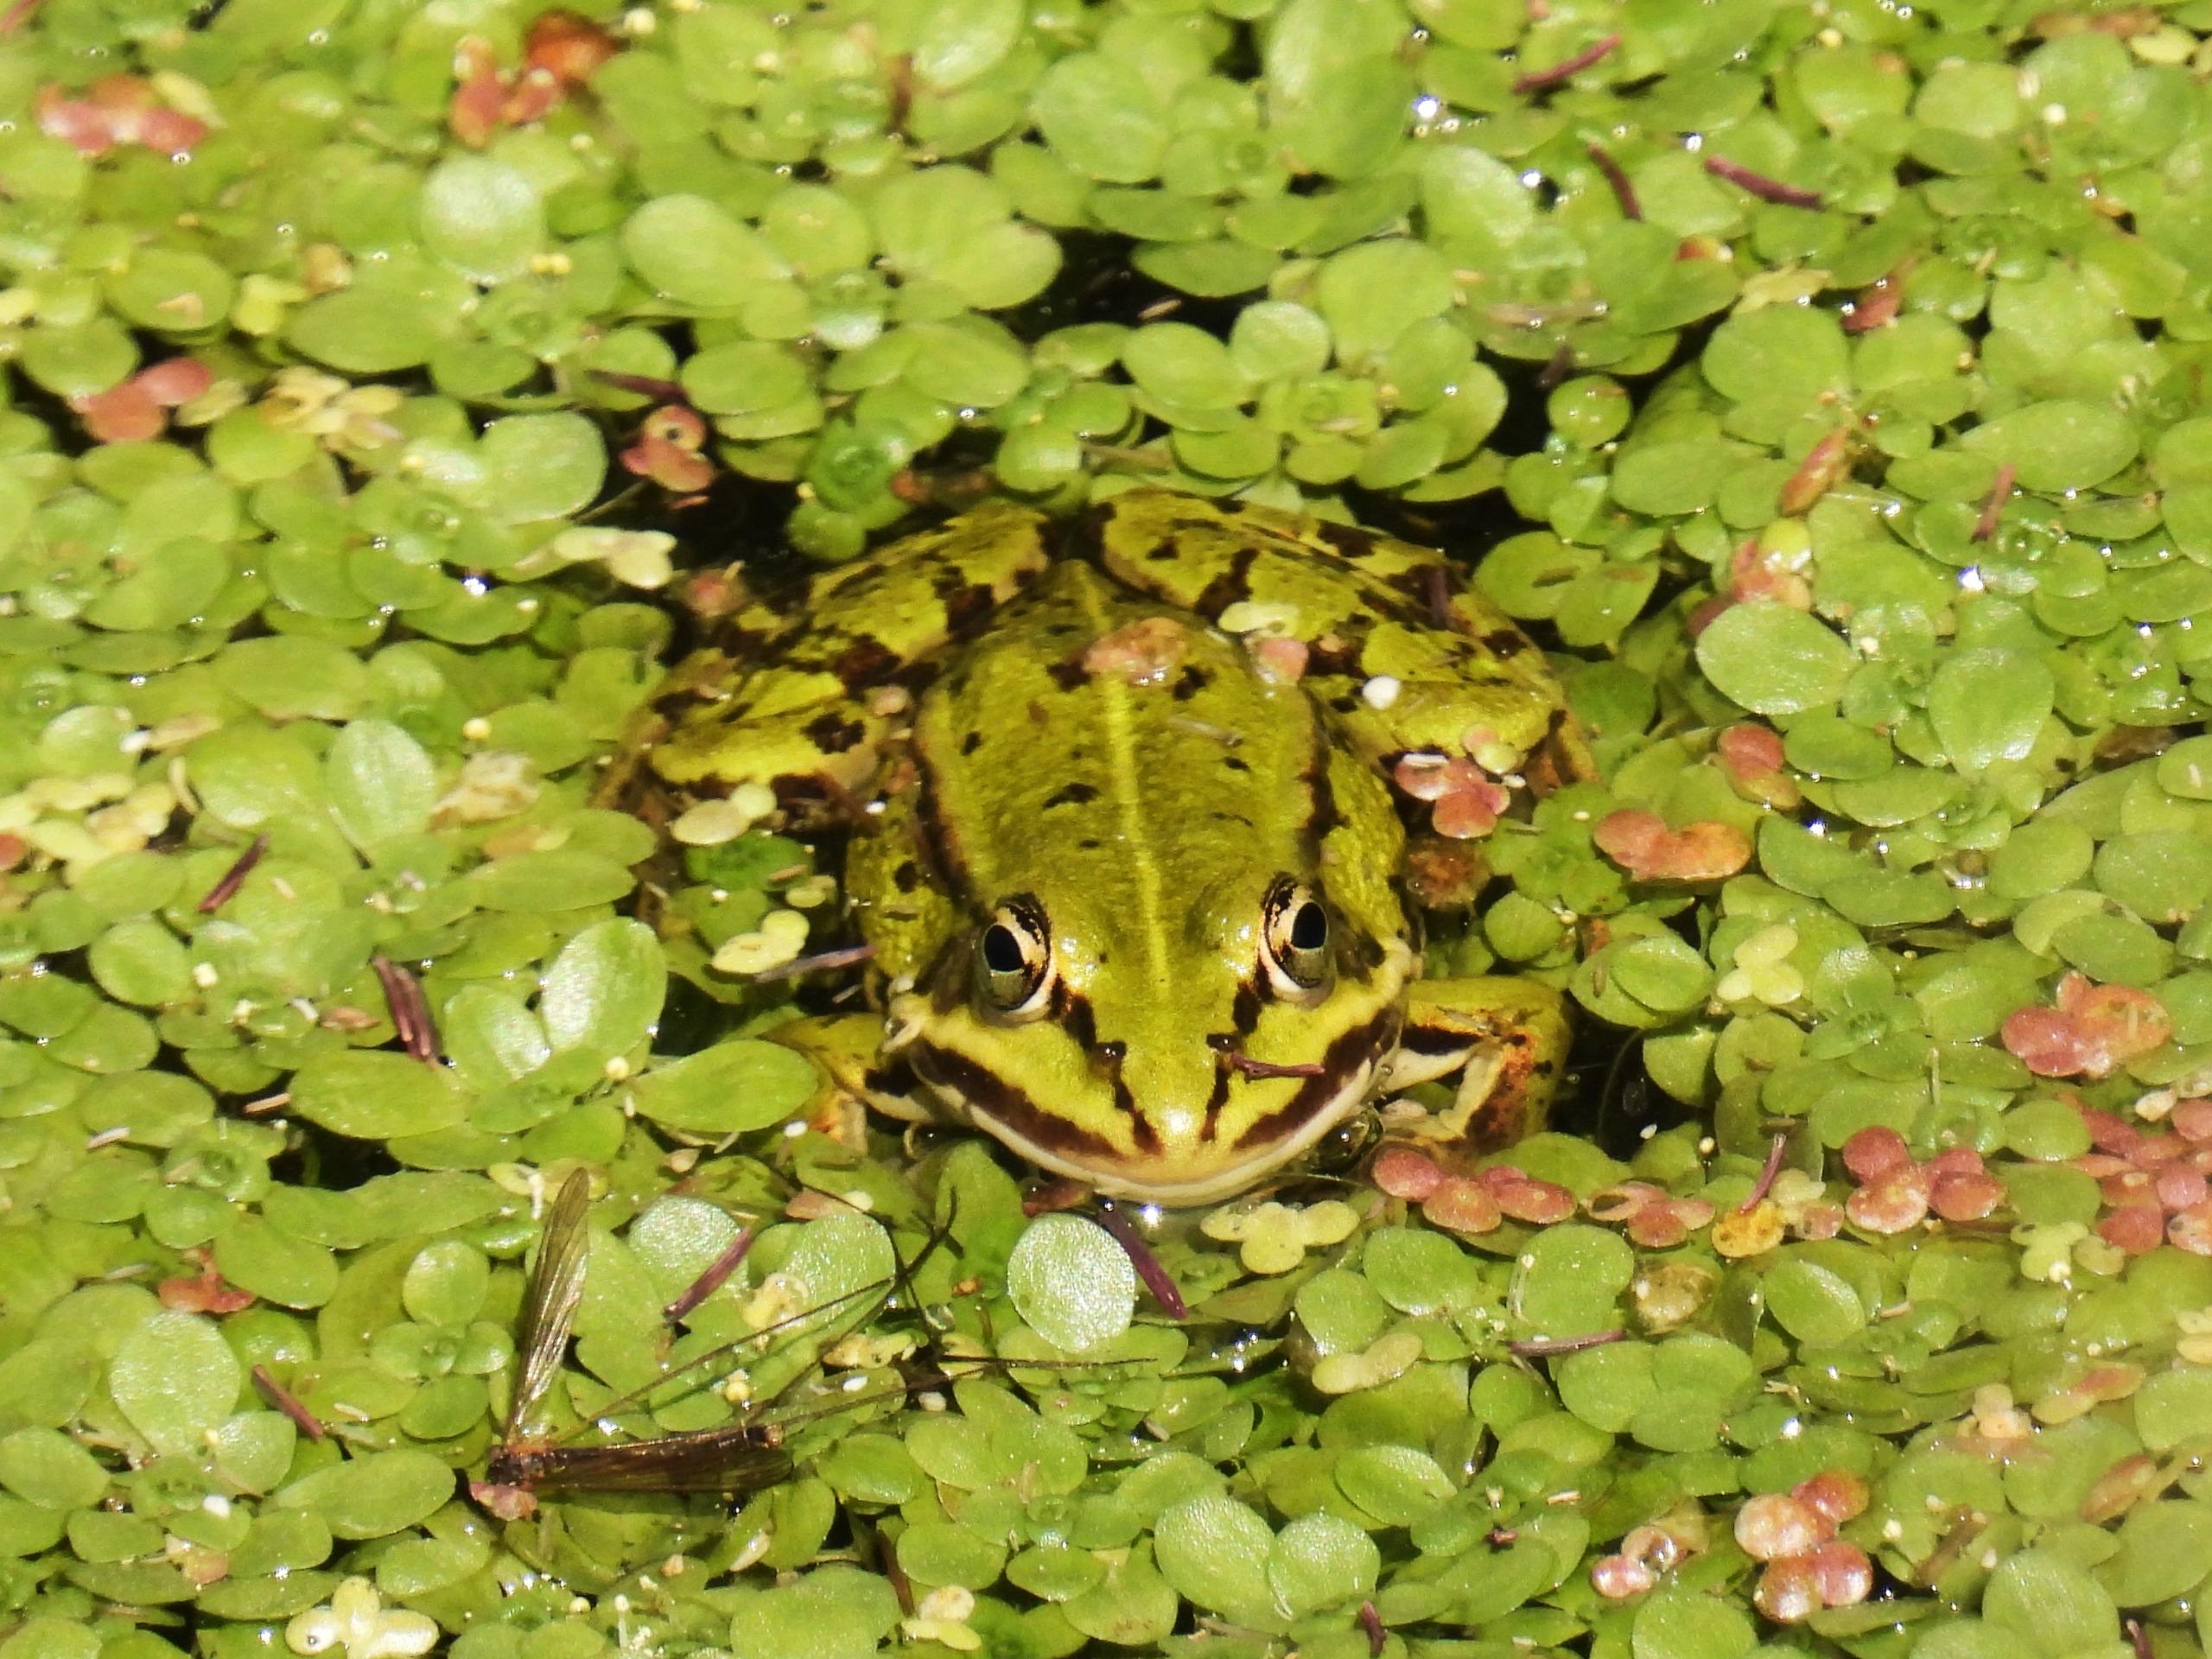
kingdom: Animalia
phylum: Chordata
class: Amphibia
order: Anura
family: Ranidae
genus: Pelophylax
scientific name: Pelophylax lessonae
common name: Grøn frø
